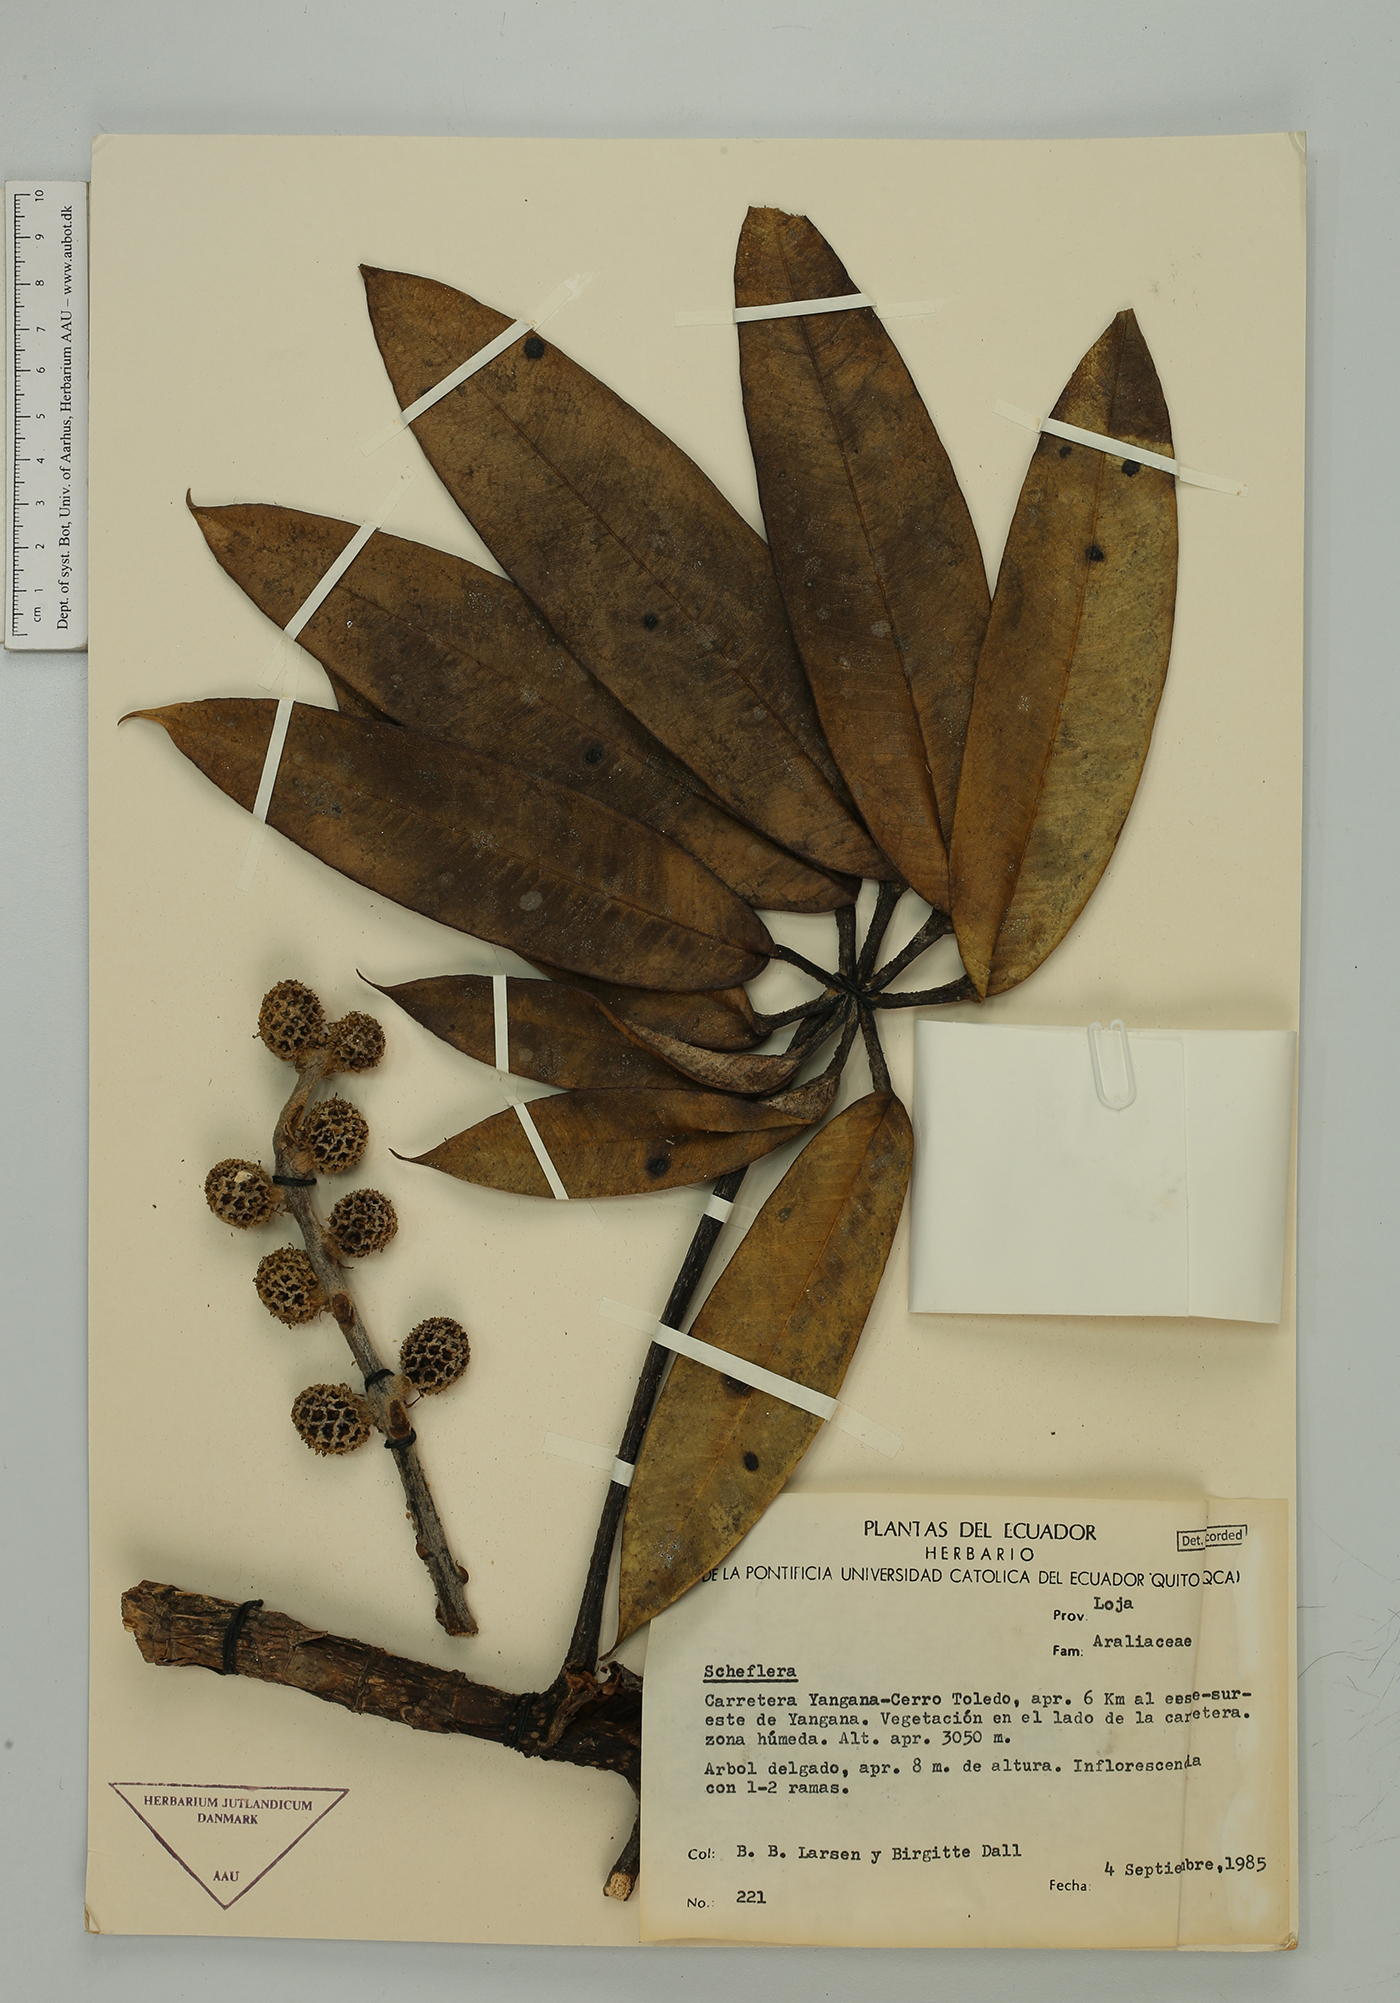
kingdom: Plantae
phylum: Tracheophyta
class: Magnoliopsida
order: Apiales
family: Araliaceae
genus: Sciodaphyllum
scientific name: Sciodaphyllum
